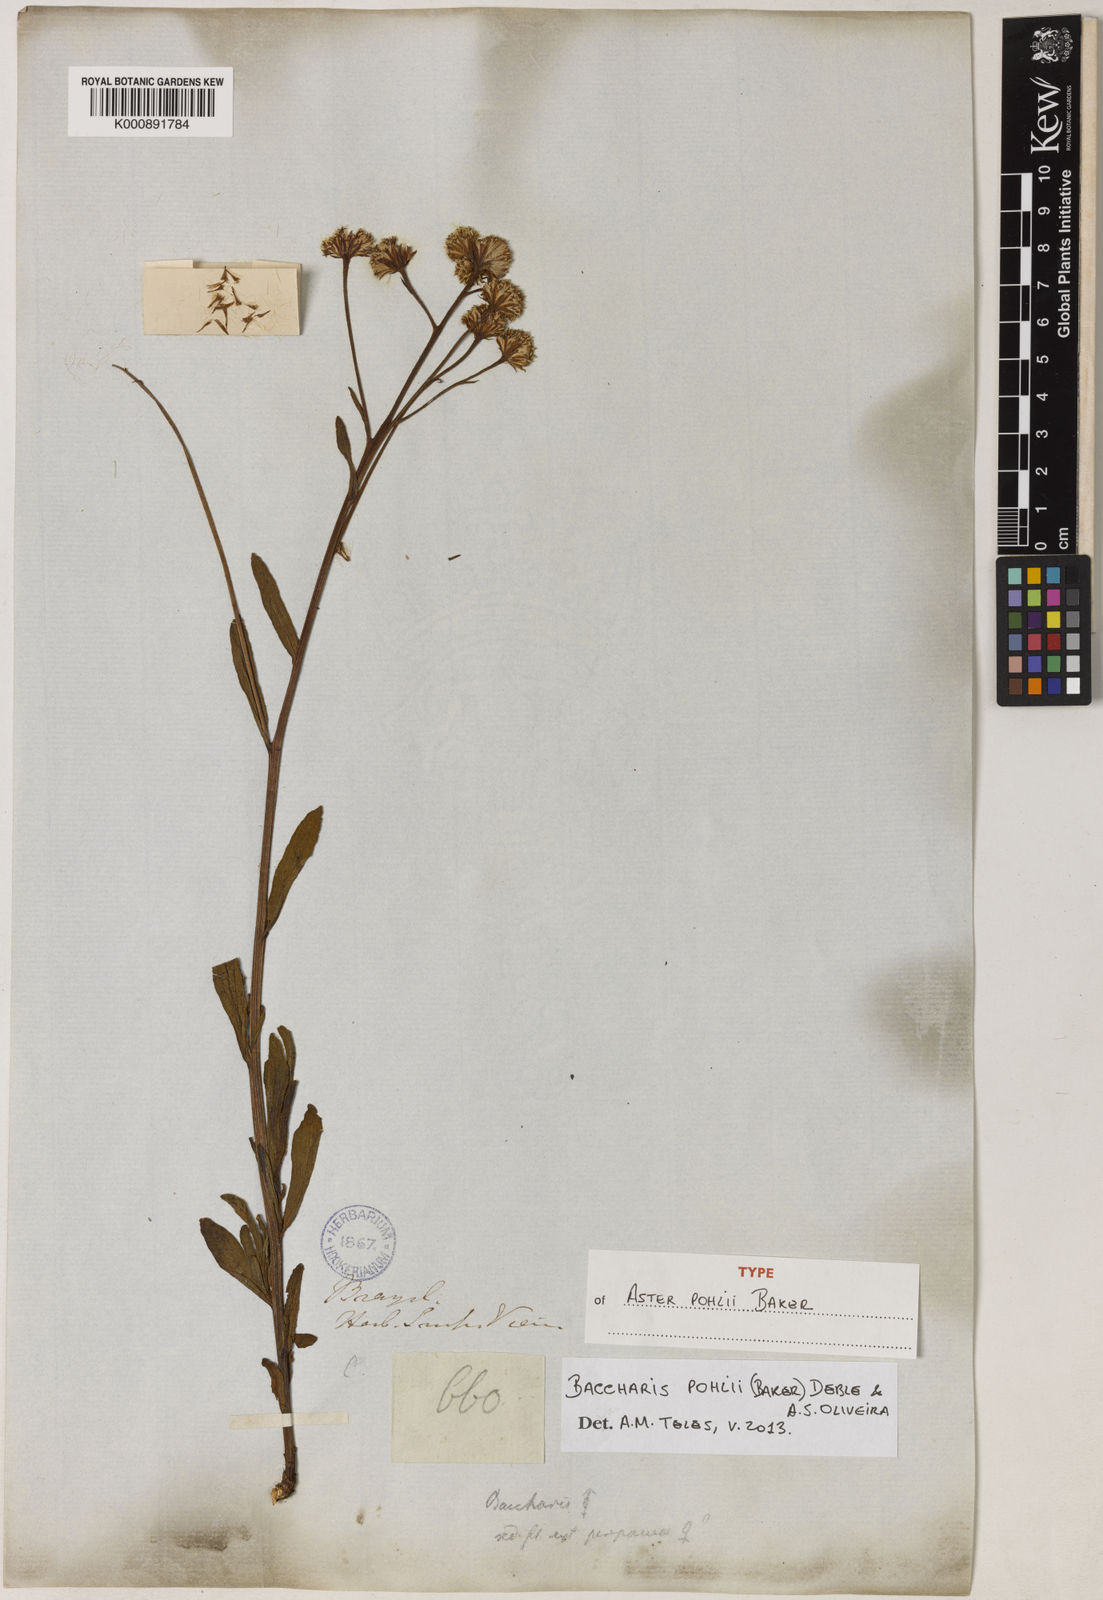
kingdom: Plantae
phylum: Tracheophyta
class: Magnoliopsida
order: Asterales
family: Asteraceae
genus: Baccharis
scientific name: Baccharis pohlii
